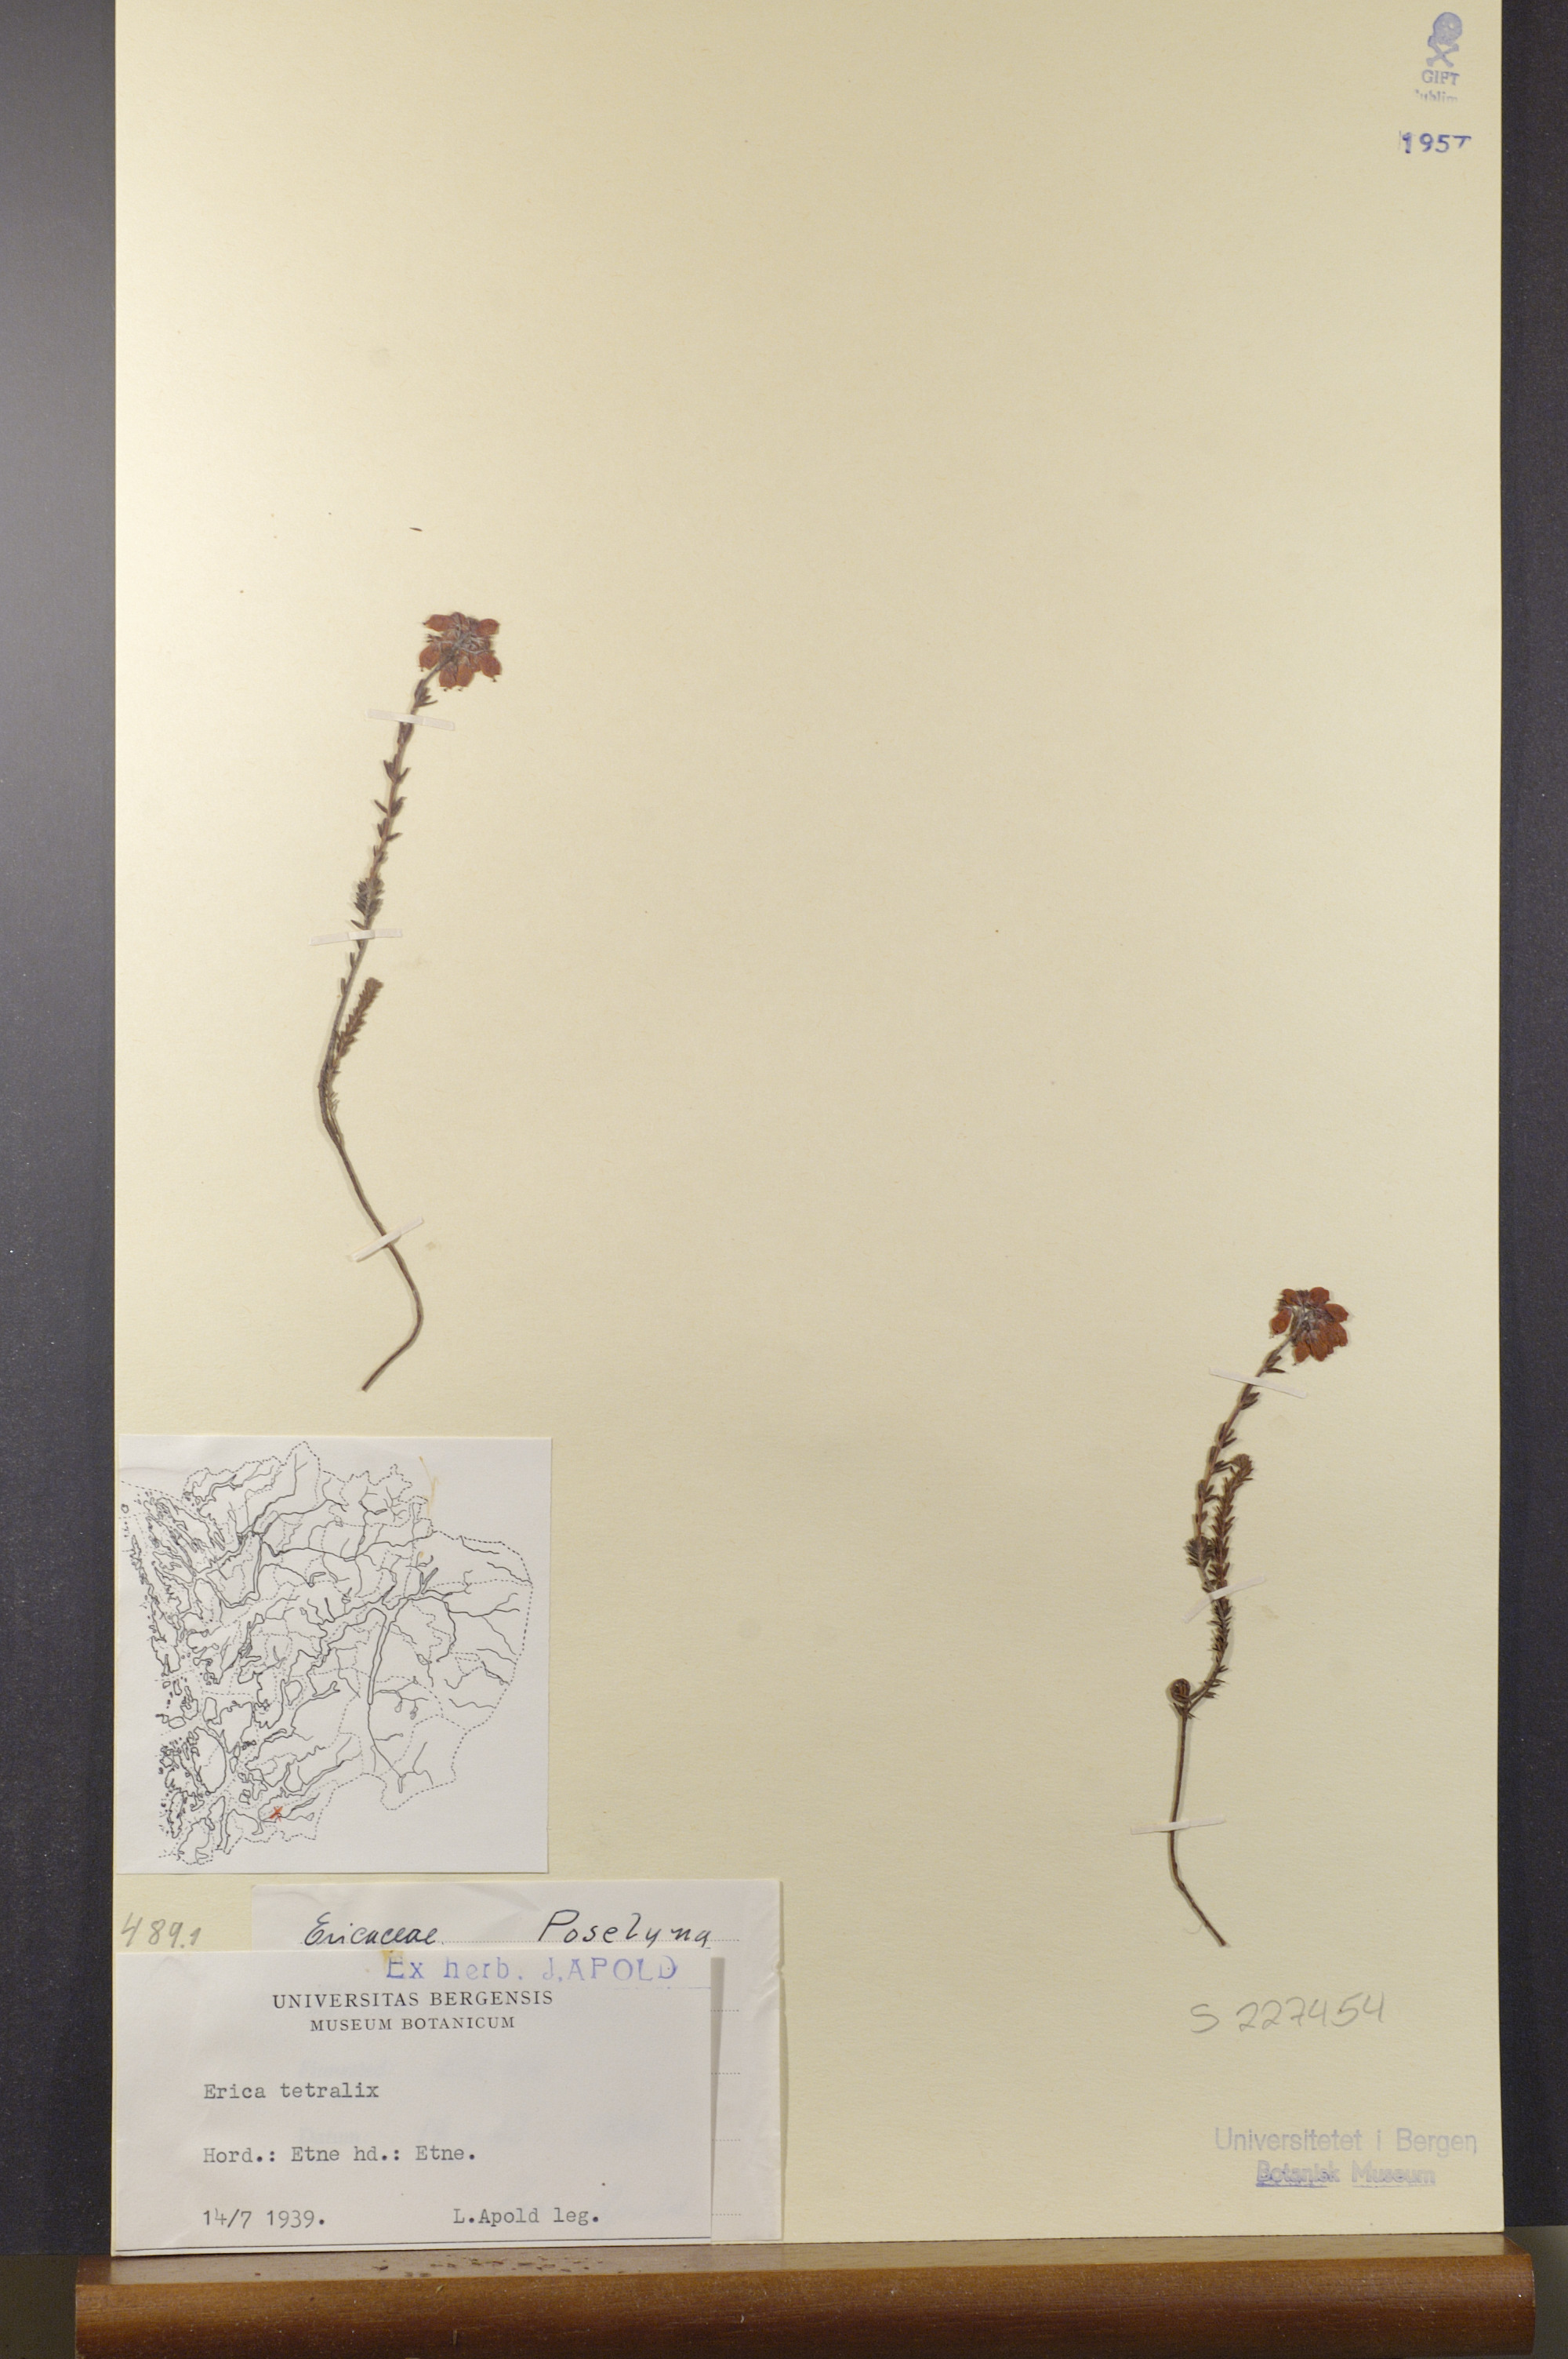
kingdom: Plantae
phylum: Tracheophyta
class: Magnoliopsida
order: Ericales
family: Ericaceae
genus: Erica
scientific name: Erica tetralix
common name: Cross-leaved heath
